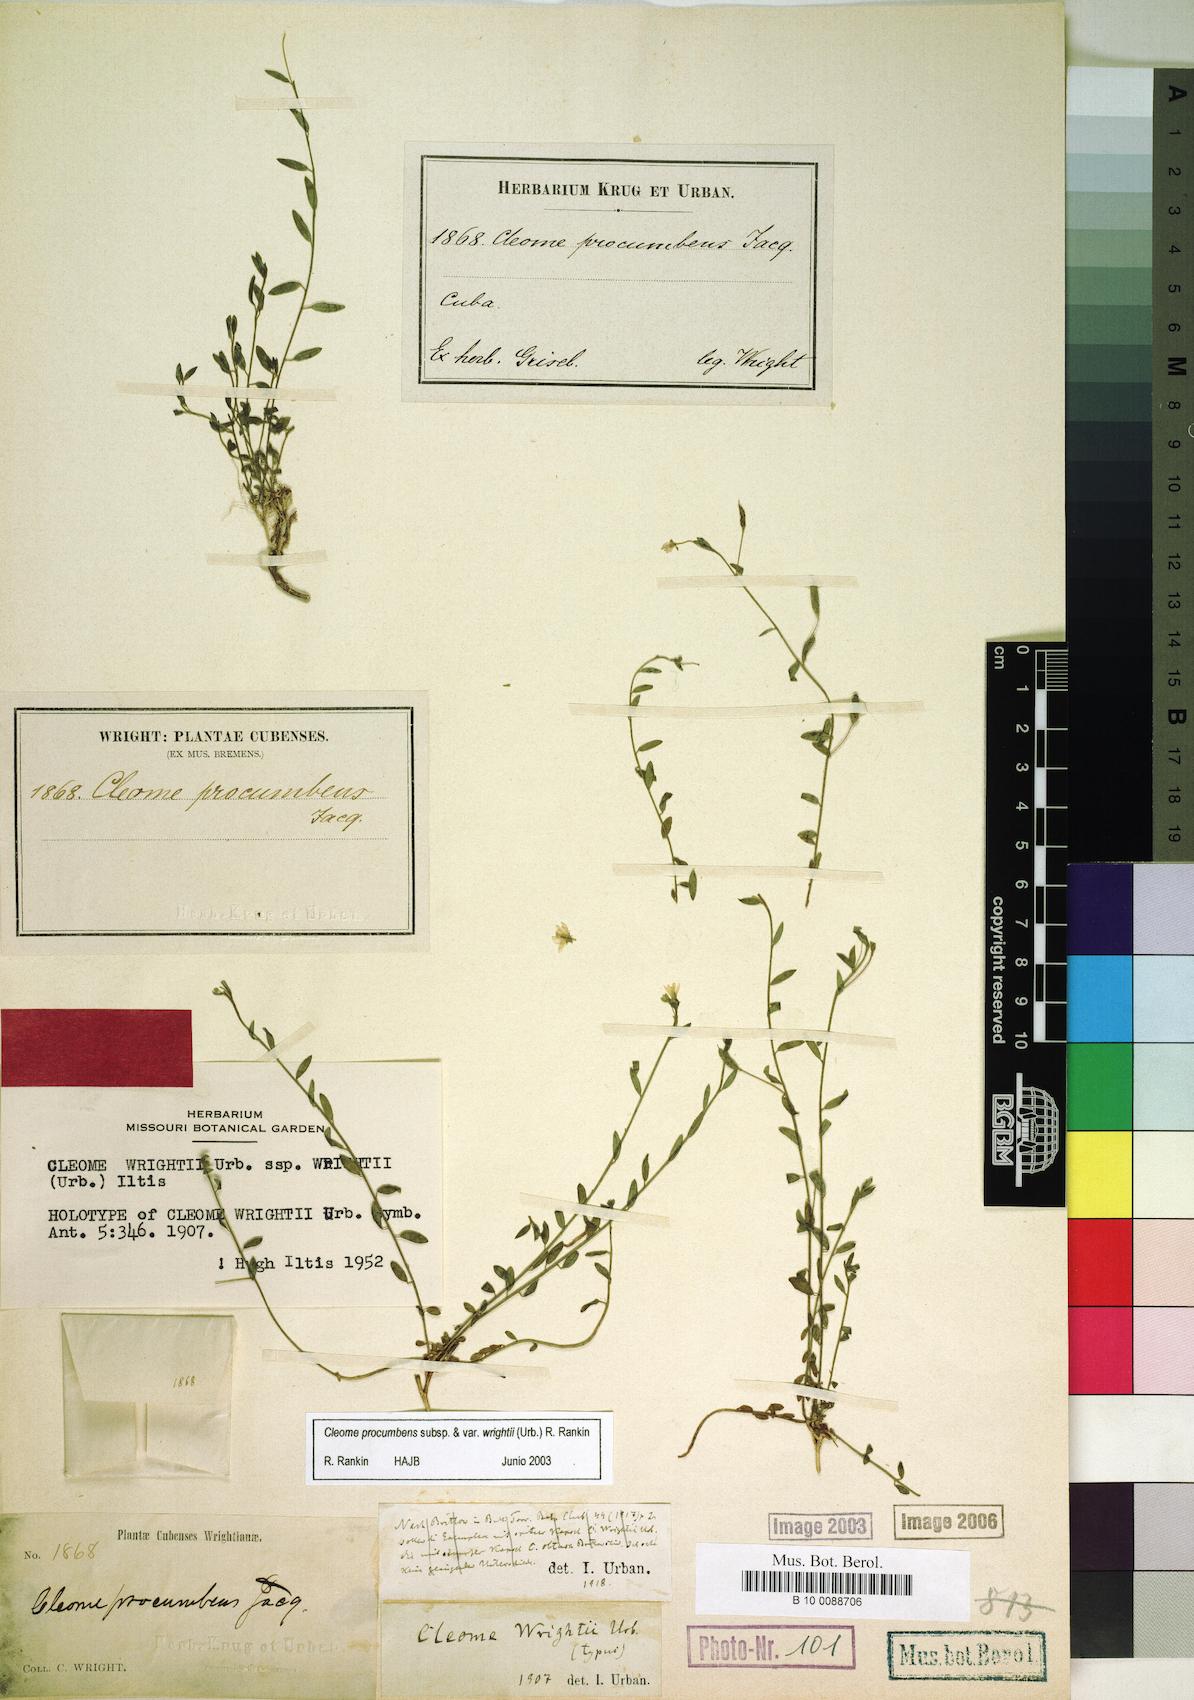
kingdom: Plantae
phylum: Tracheophyta
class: Magnoliopsida
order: Brassicales
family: Cleomaceae
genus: Physostemon
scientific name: Physostemon procumbens
